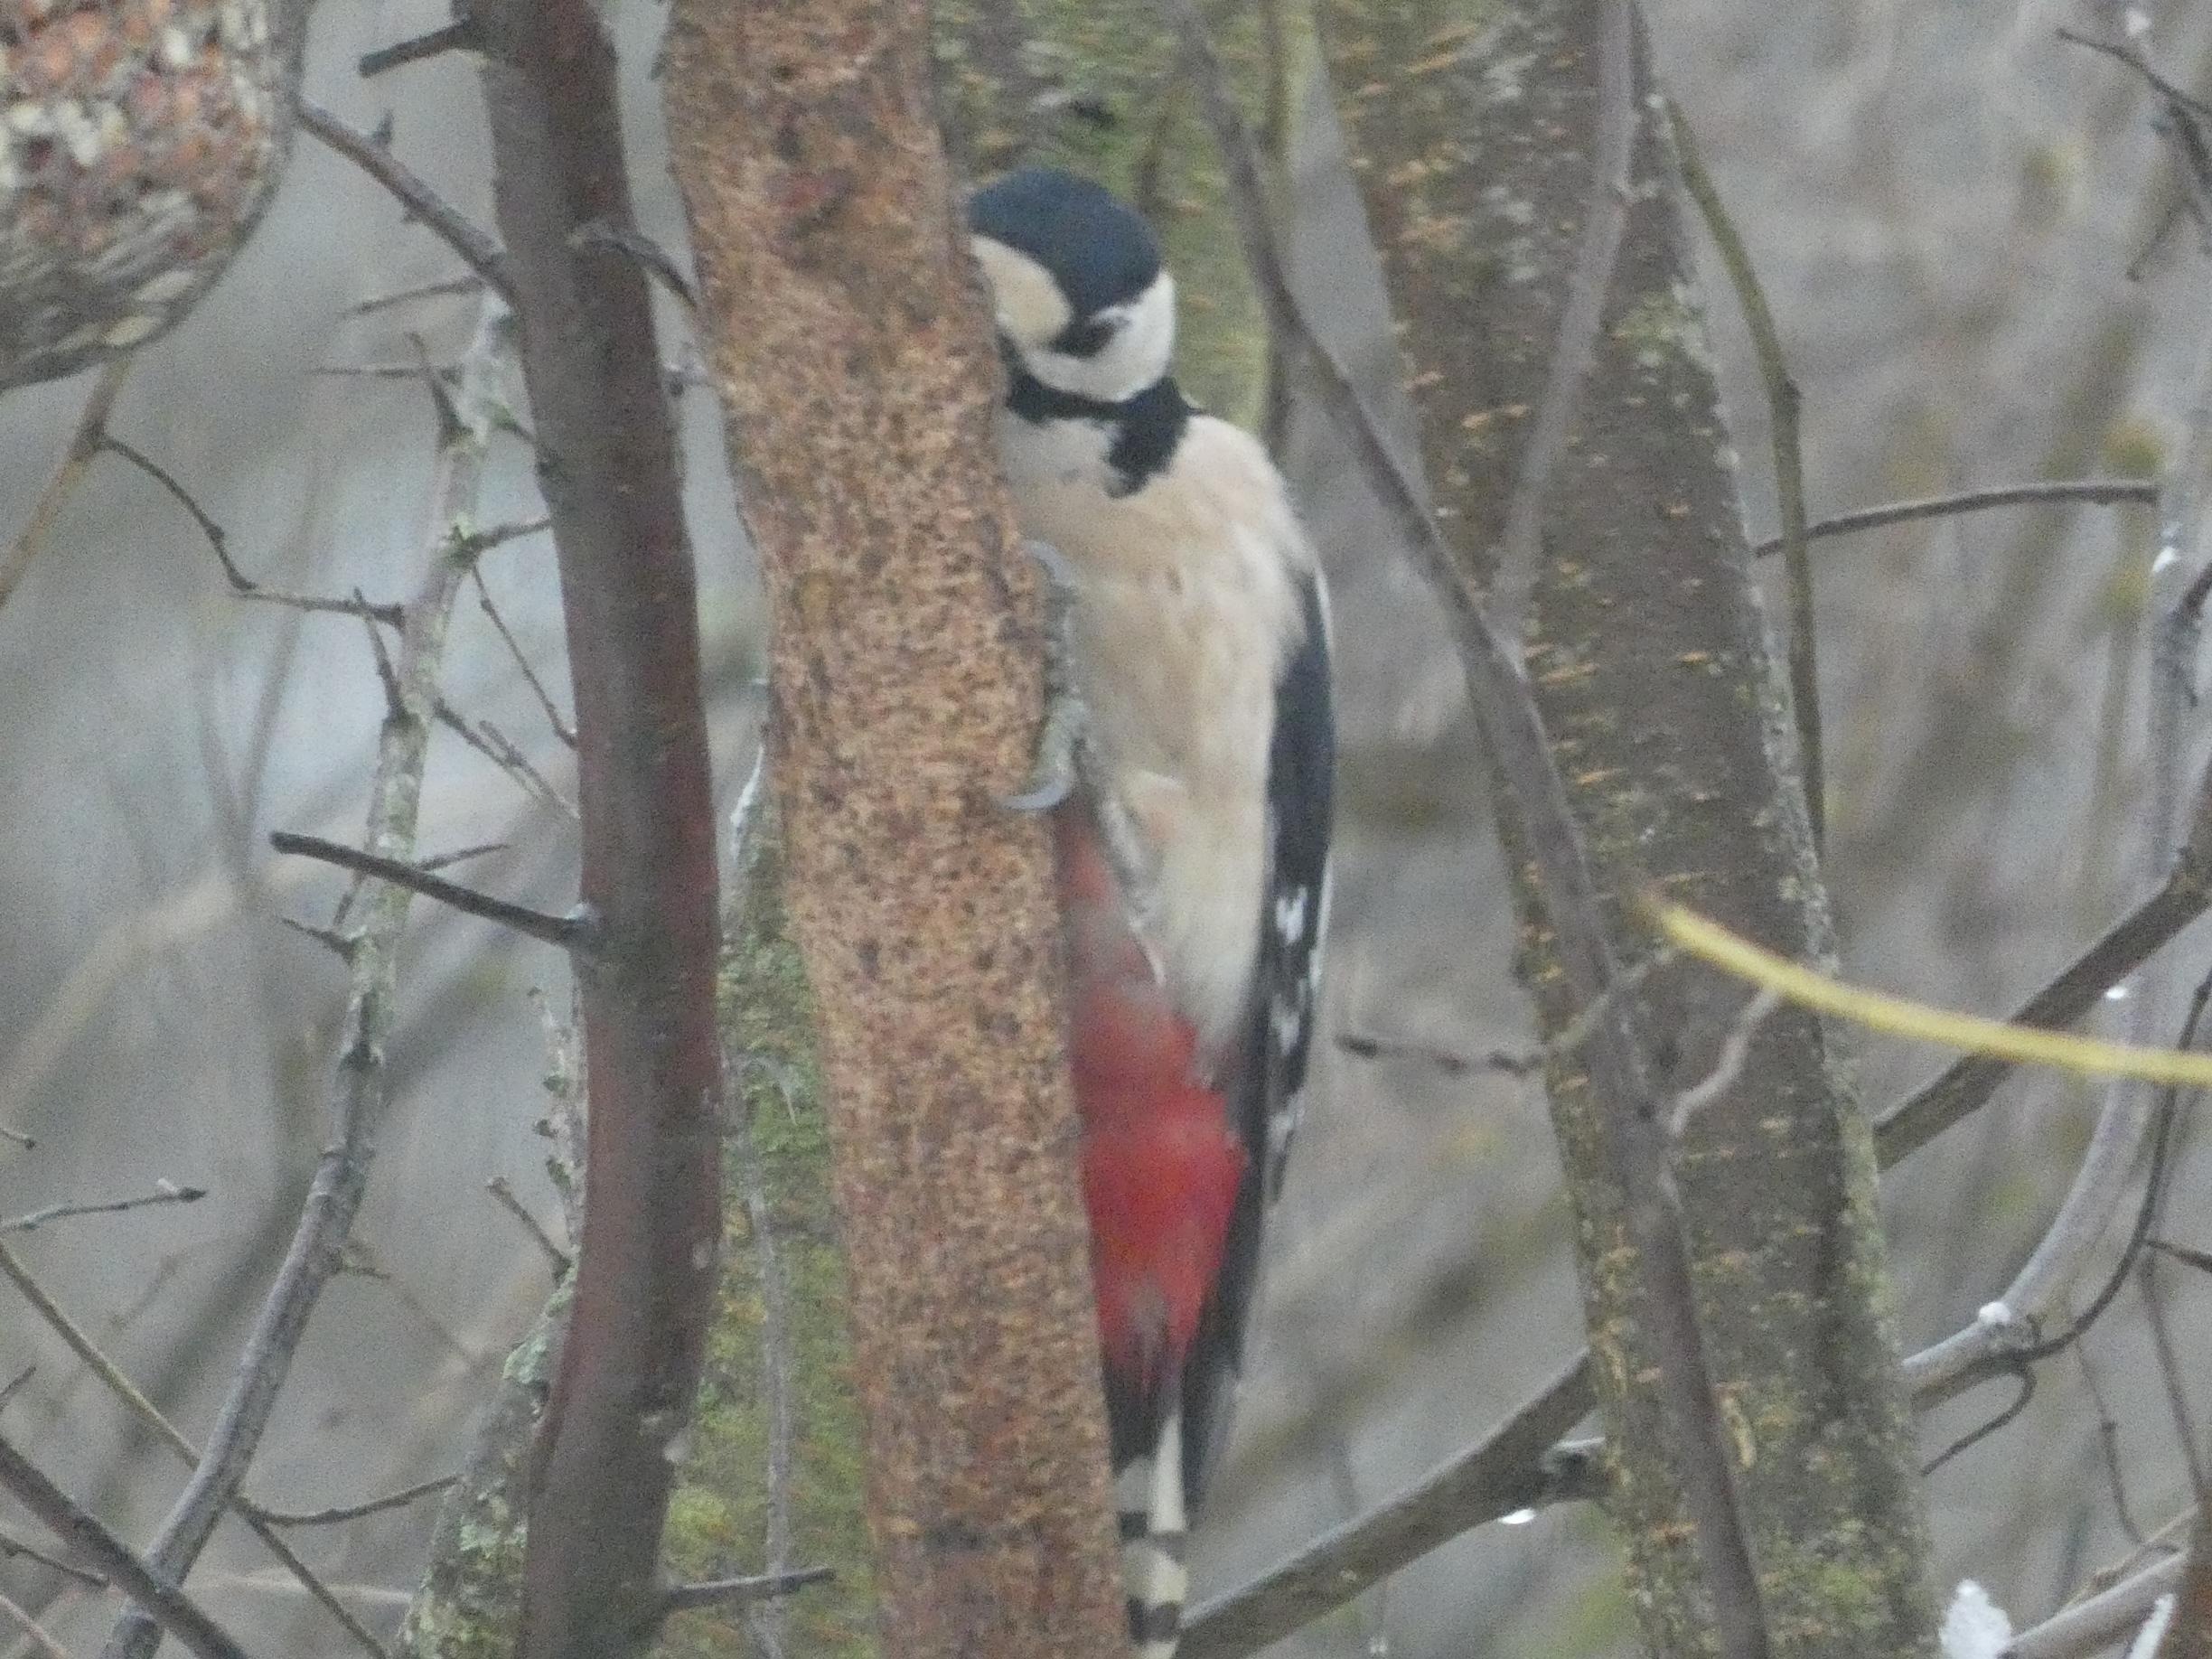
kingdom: Animalia
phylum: Chordata
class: Aves
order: Piciformes
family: Picidae
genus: Dendrocopos
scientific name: Dendrocopos major
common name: Stor flagspætte
